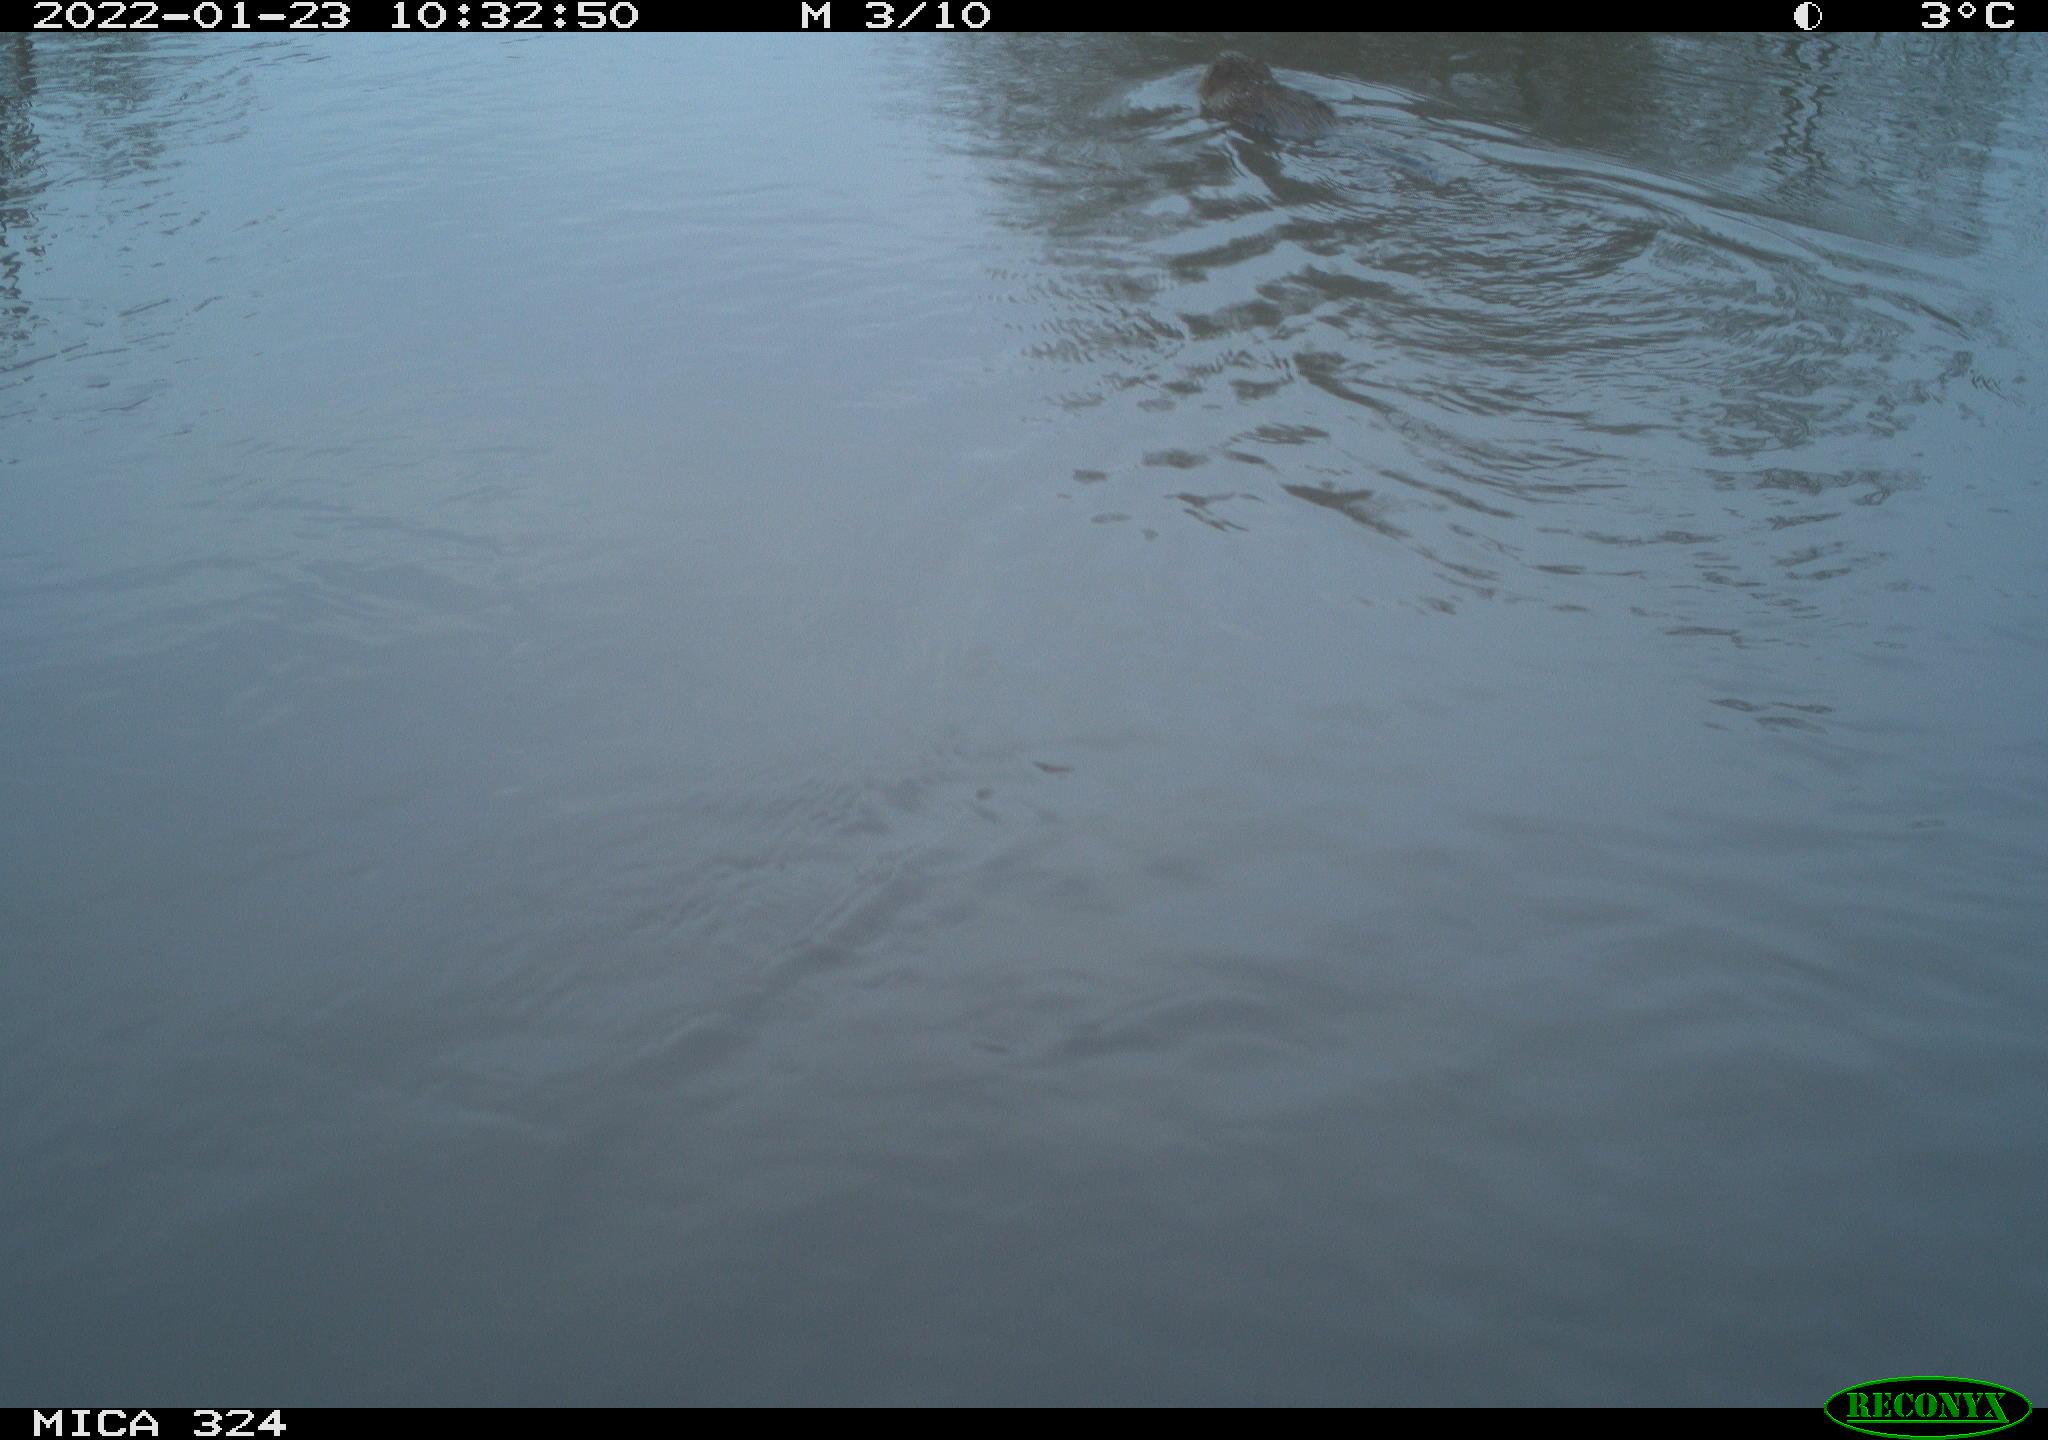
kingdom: Animalia
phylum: Chordata
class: Mammalia
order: Rodentia
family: Cricetidae
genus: Ondatra
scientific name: Ondatra zibethicus
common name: Muskrat
